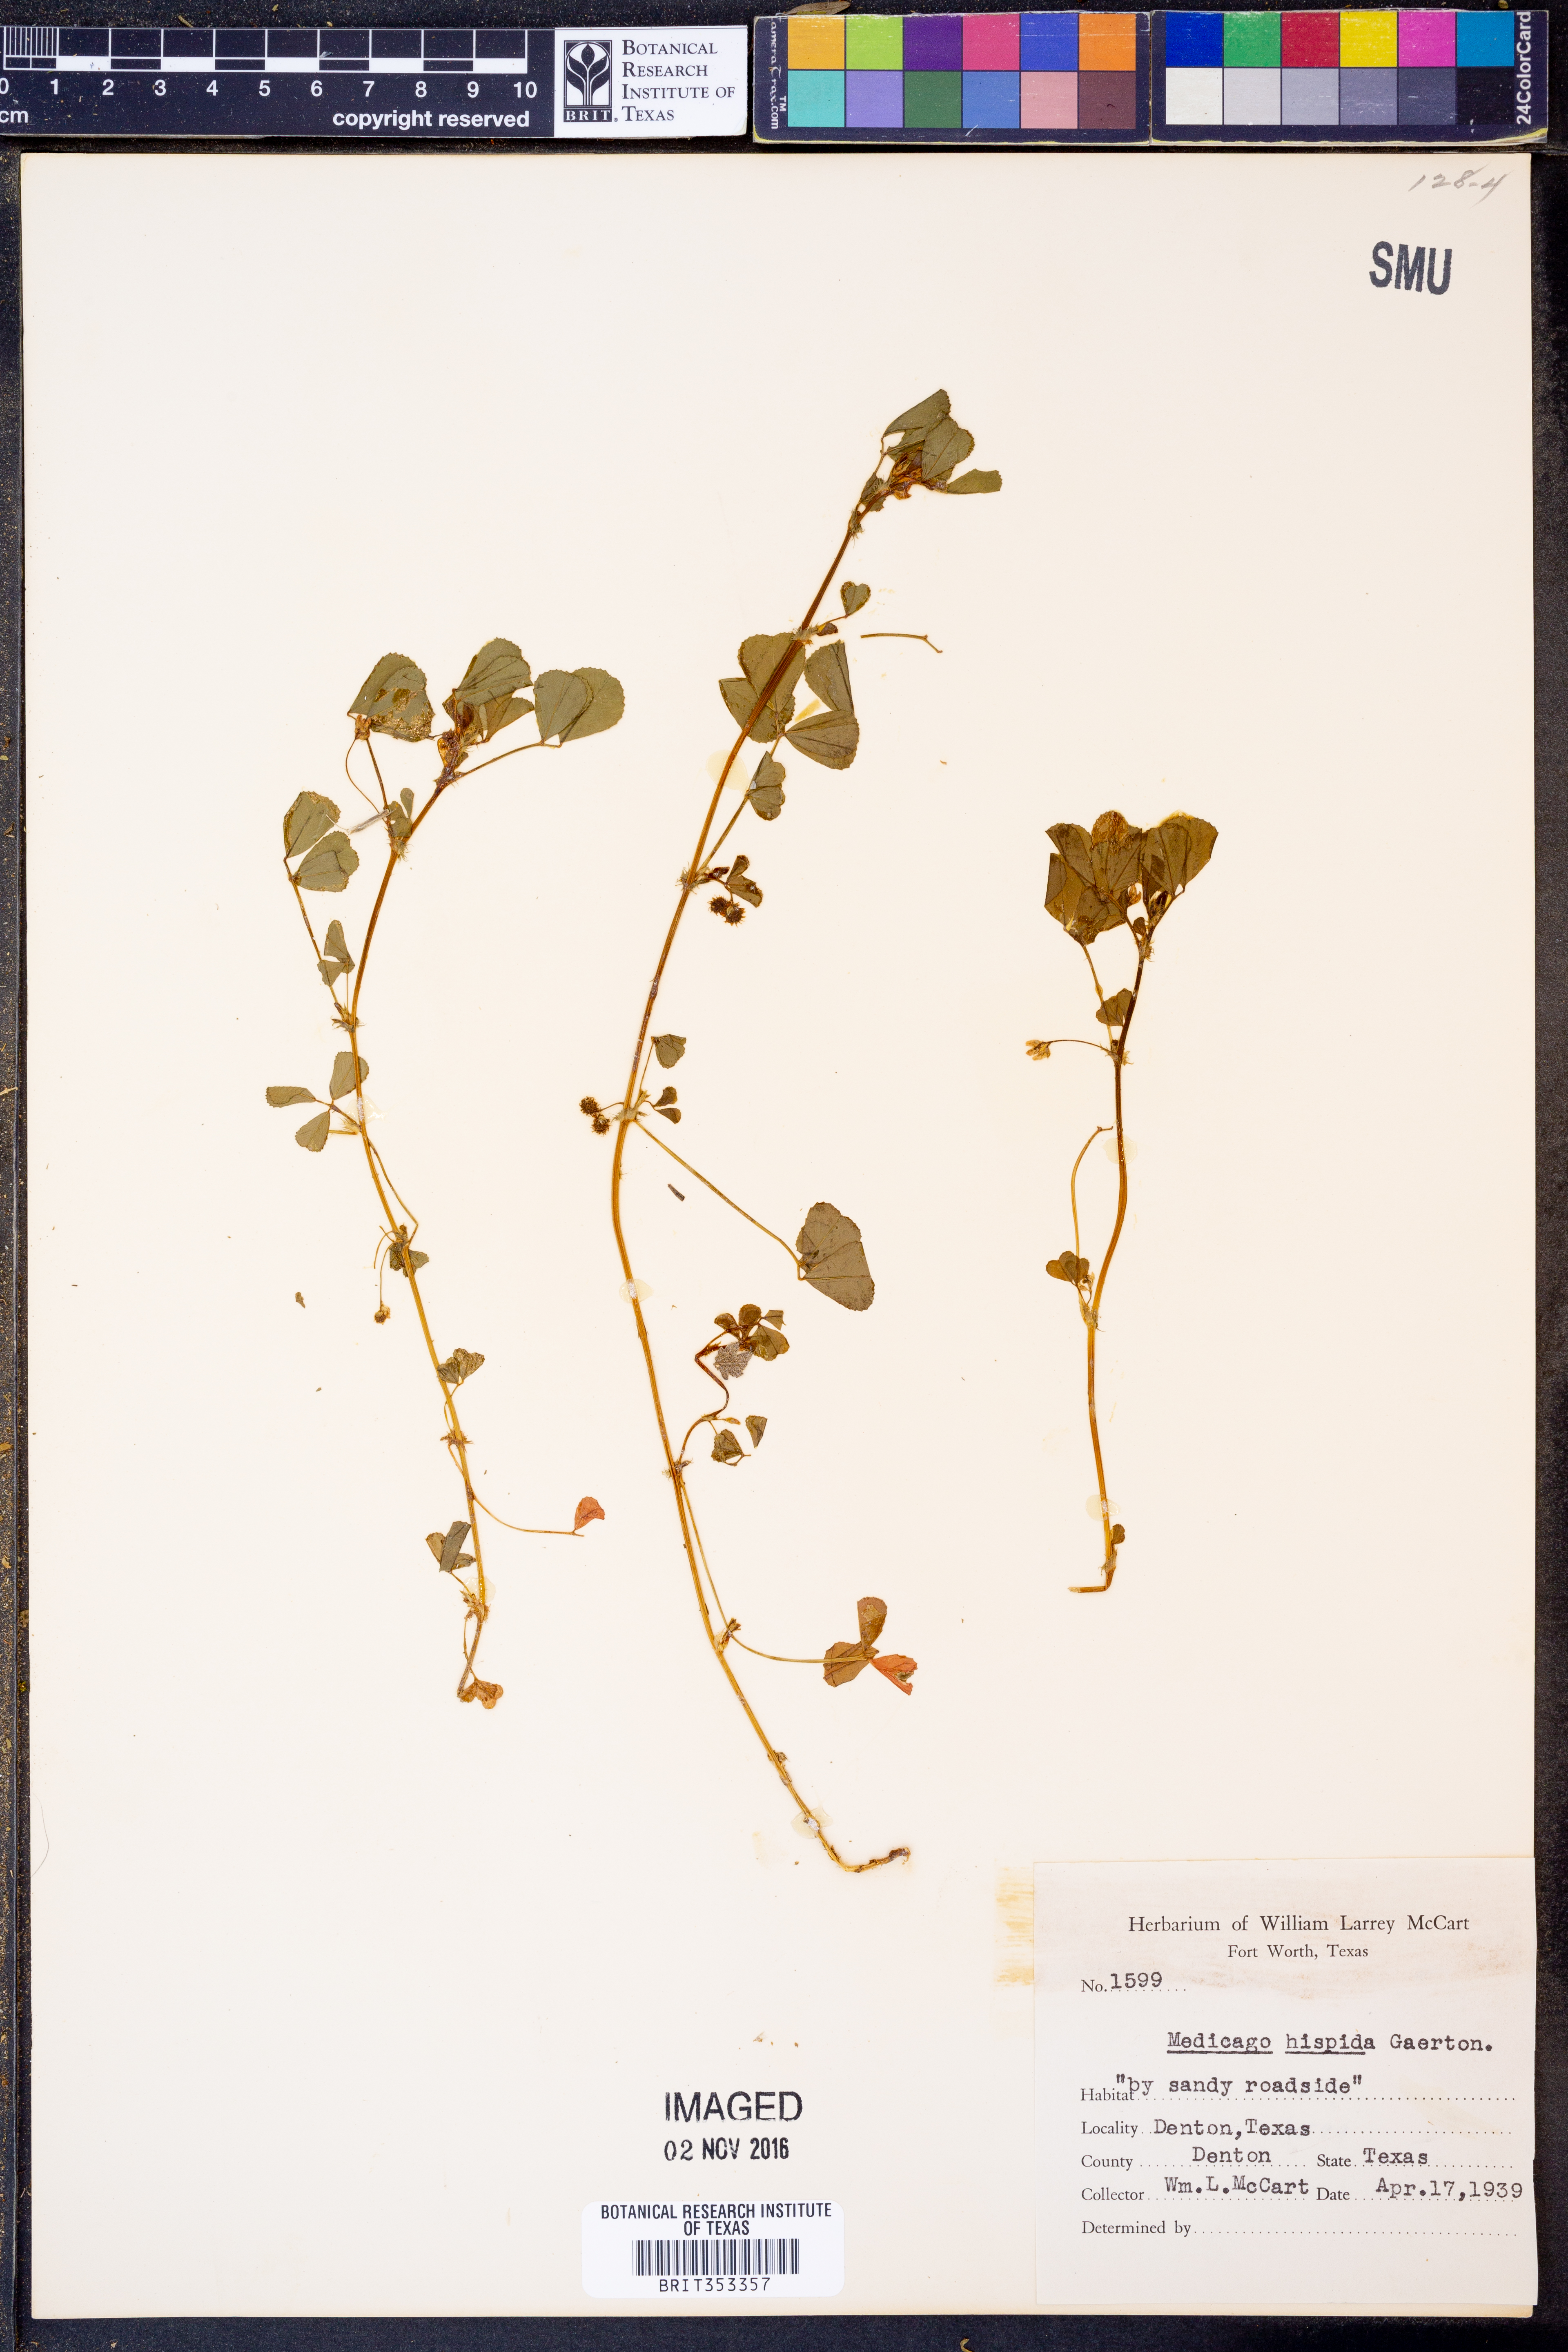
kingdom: Plantae
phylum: Tracheophyta
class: Magnoliopsida
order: Fabales
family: Fabaceae
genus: Medicago
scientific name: Medicago polymorpha
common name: Burclover
